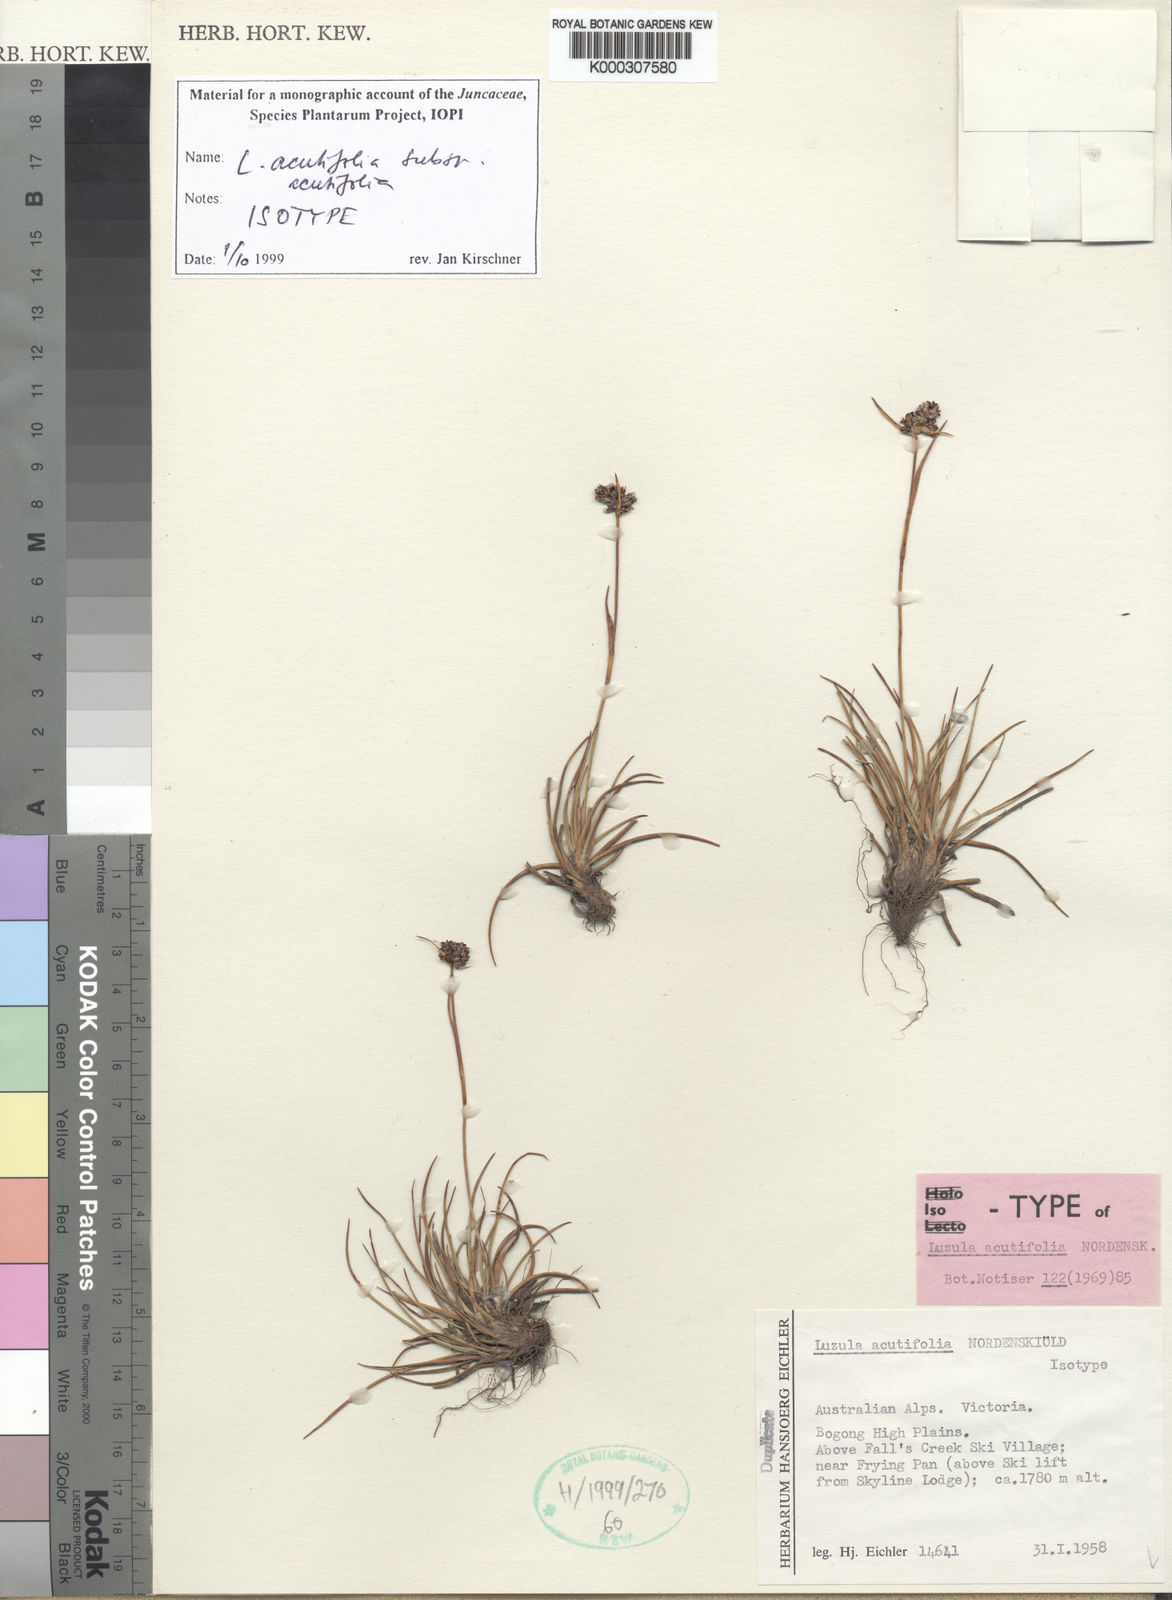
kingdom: Plantae
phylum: Tracheophyta
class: Liliopsida
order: Poales
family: Juncaceae
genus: Luzula
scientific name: Luzula acutifolia
